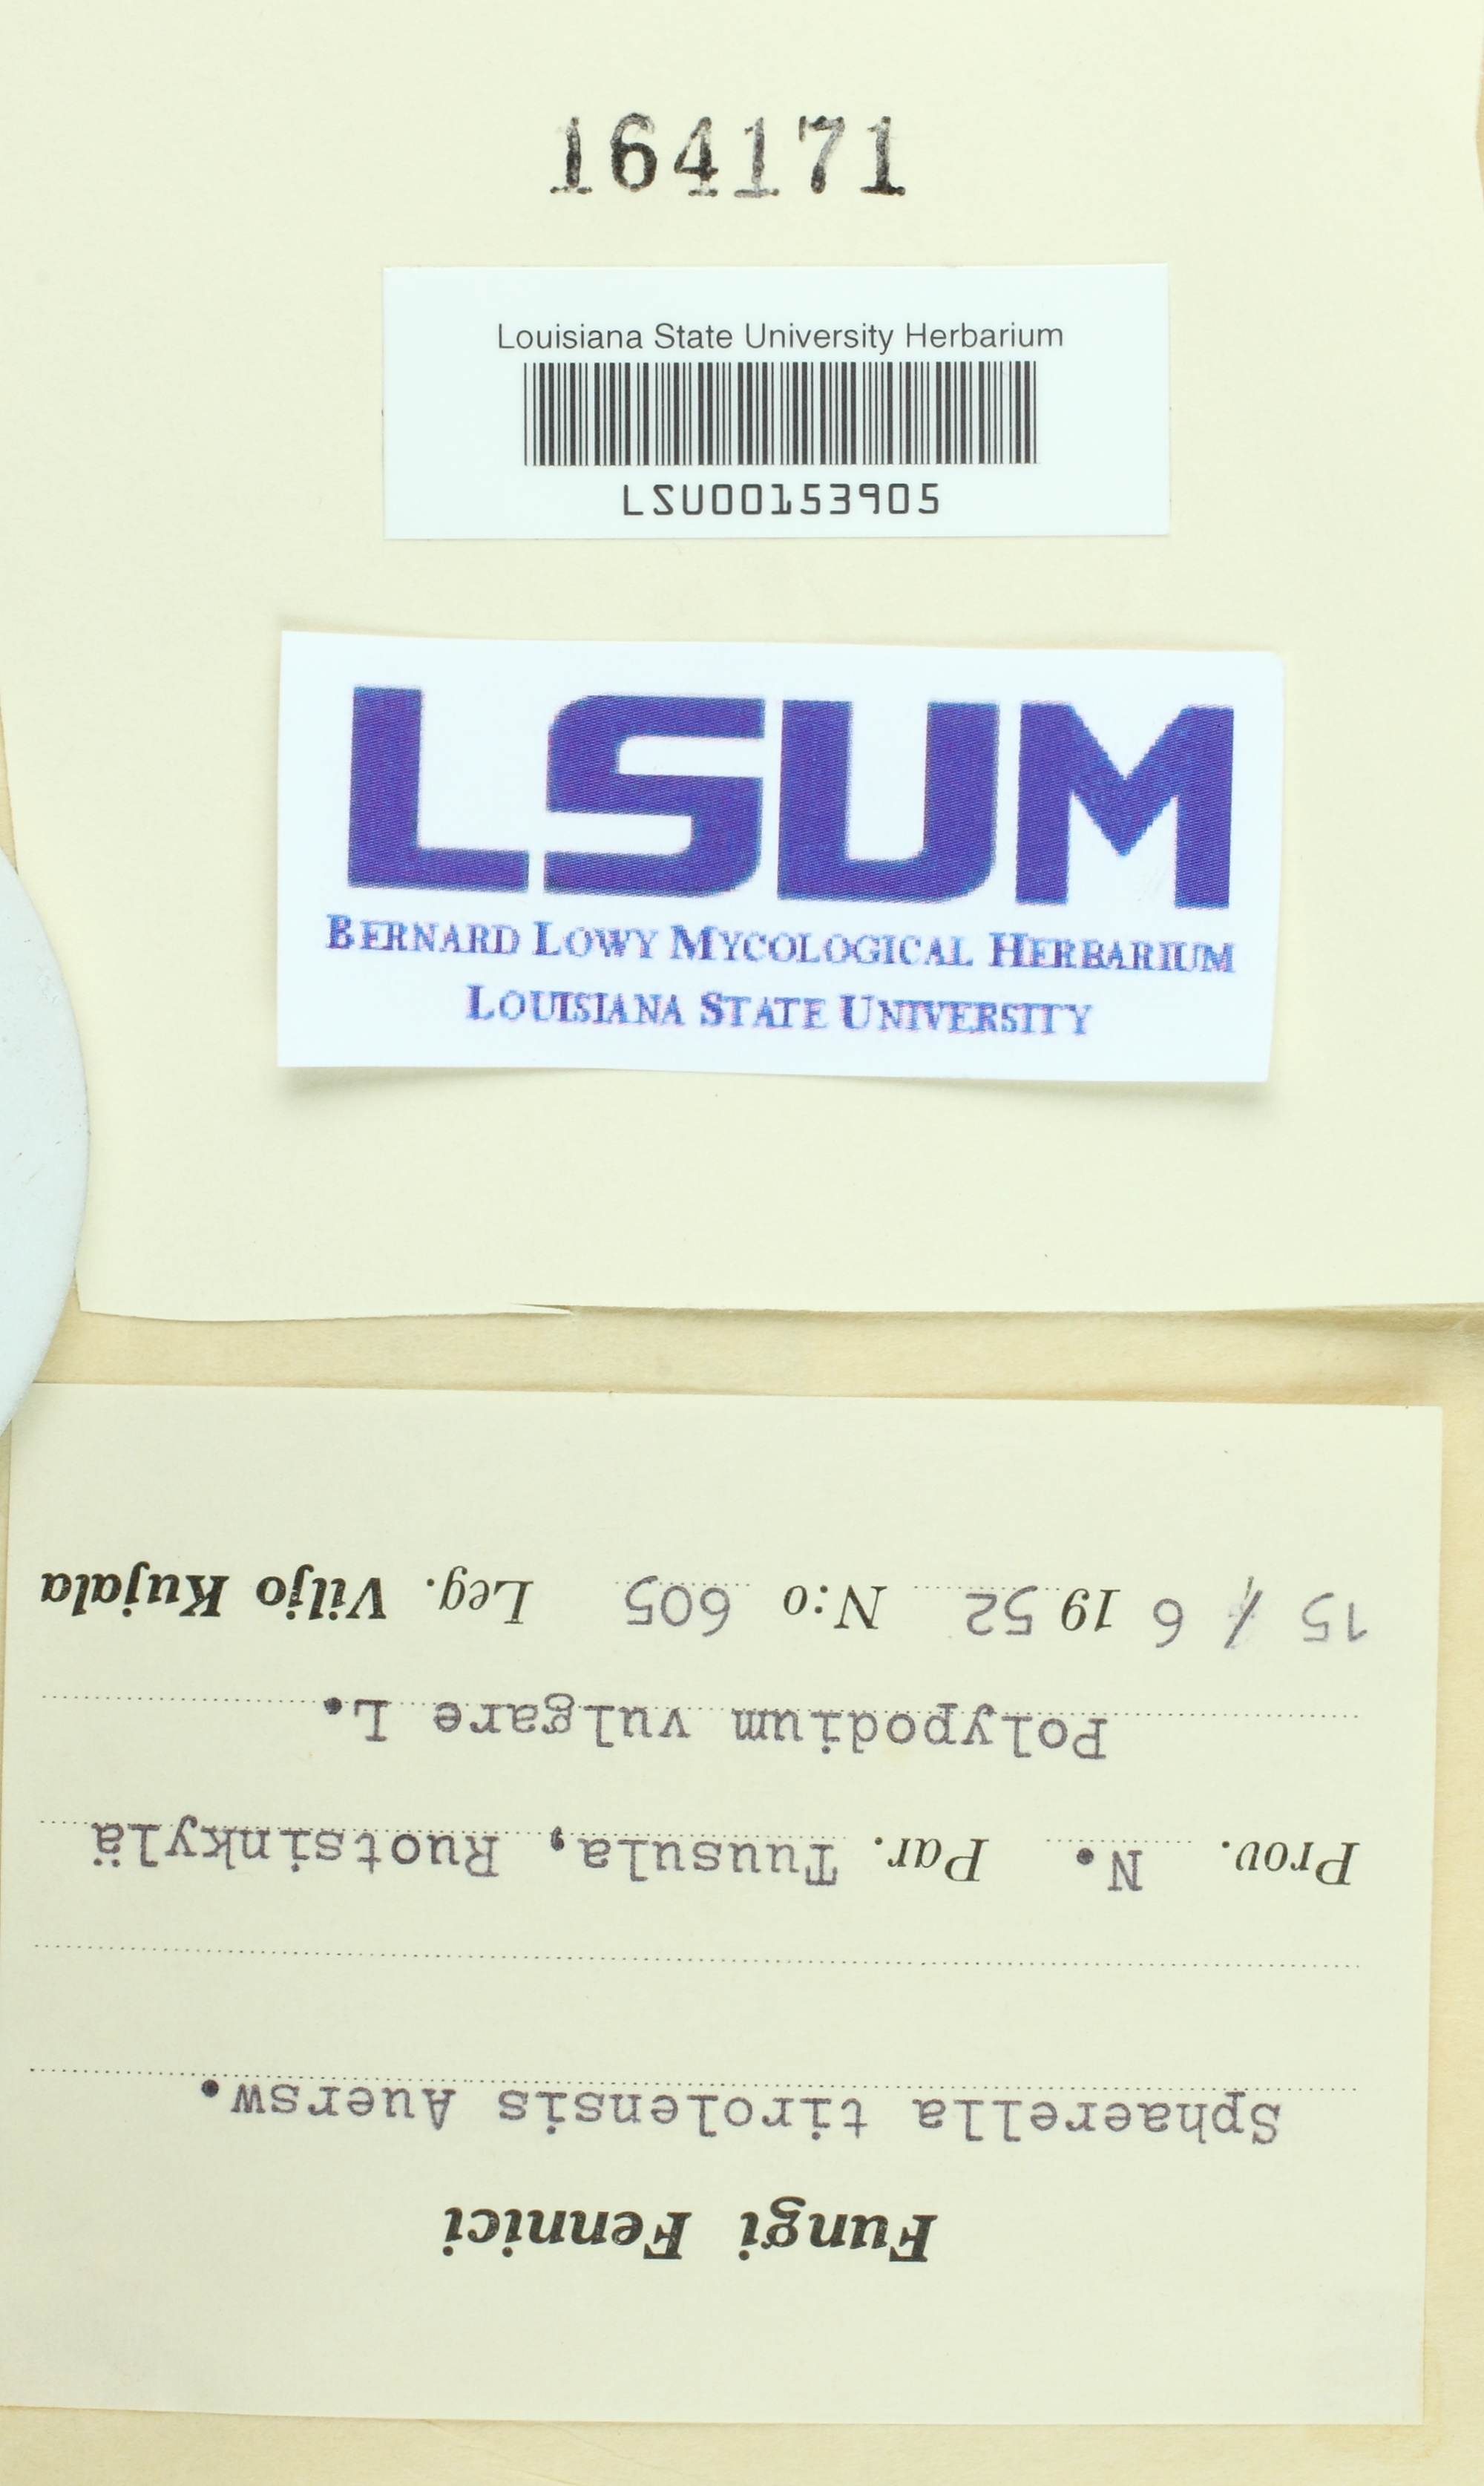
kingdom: Fungi
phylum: Ascomycota
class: Dothideomycetes
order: Mycosphaerellales
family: Mycosphaerellaceae
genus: Mycosphaerella
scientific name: Mycosphaerella tirolensis
